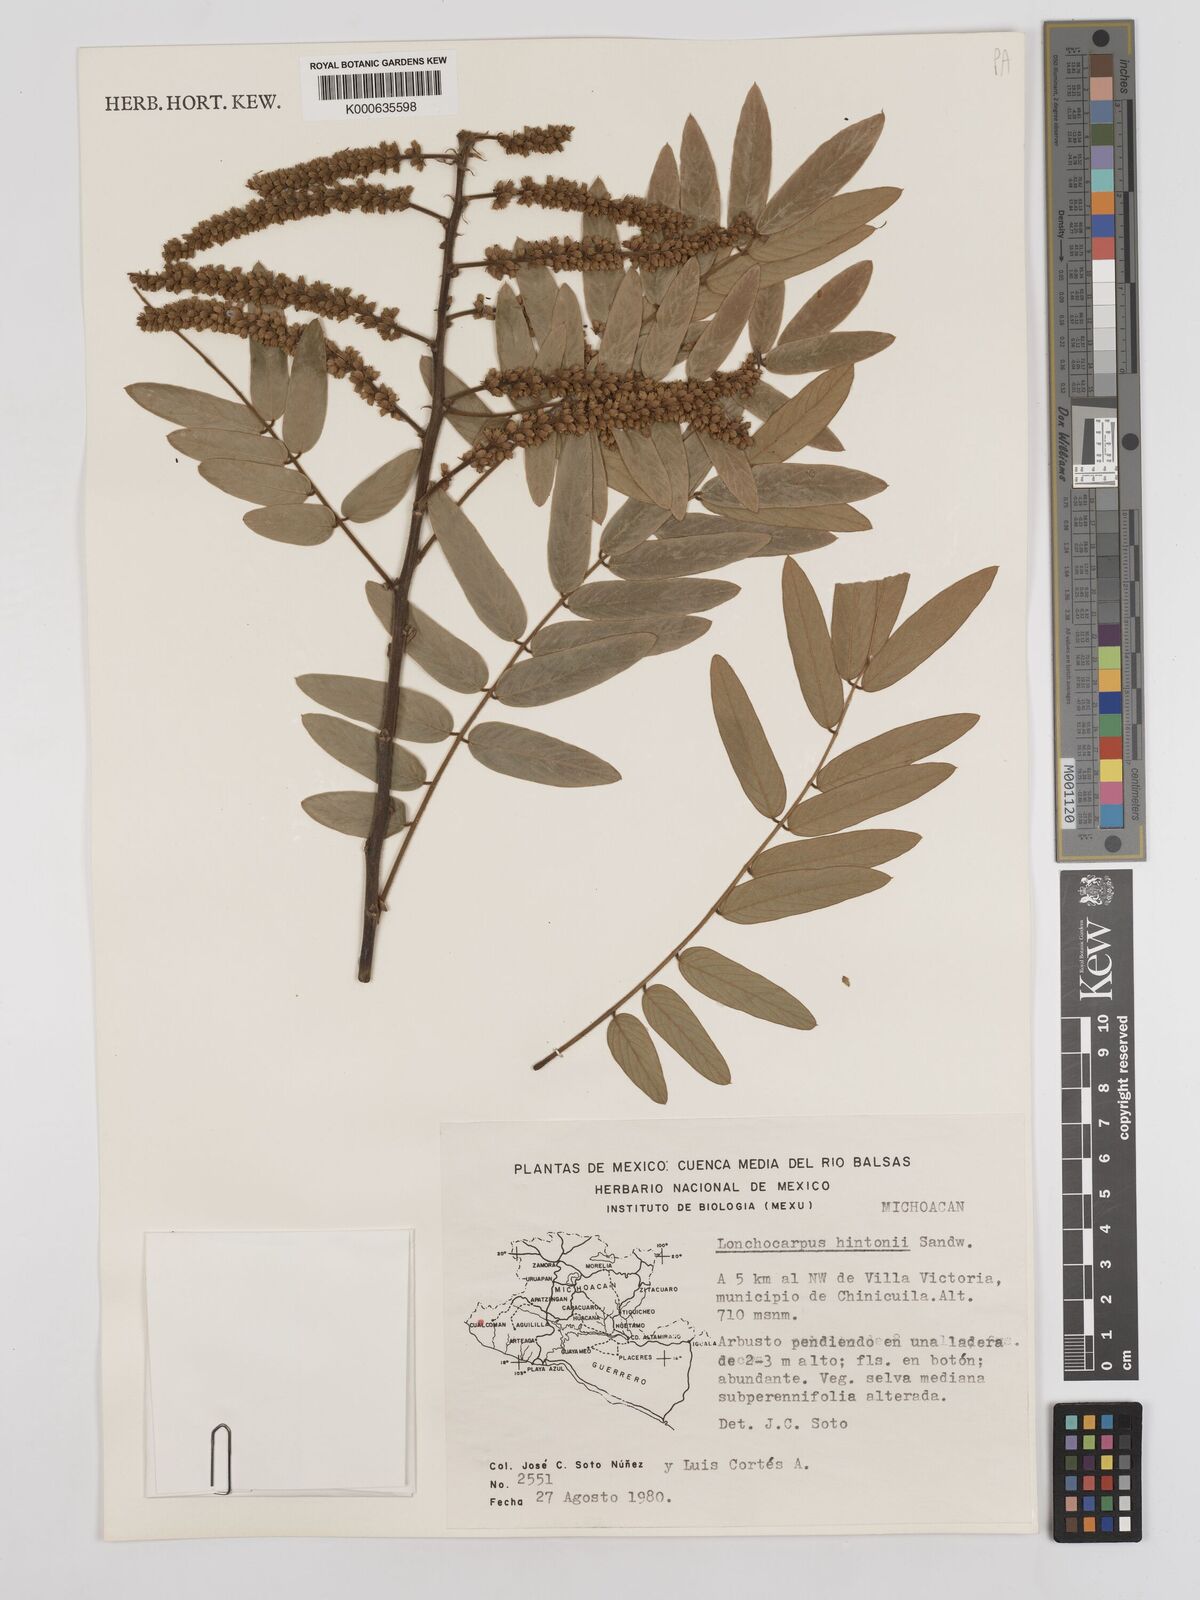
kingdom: Plantae
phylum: Tracheophyta
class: Magnoliopsida
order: Fabales
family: Fabaceae
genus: Lonchocarpus
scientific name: Lonchocarpus hintonii
